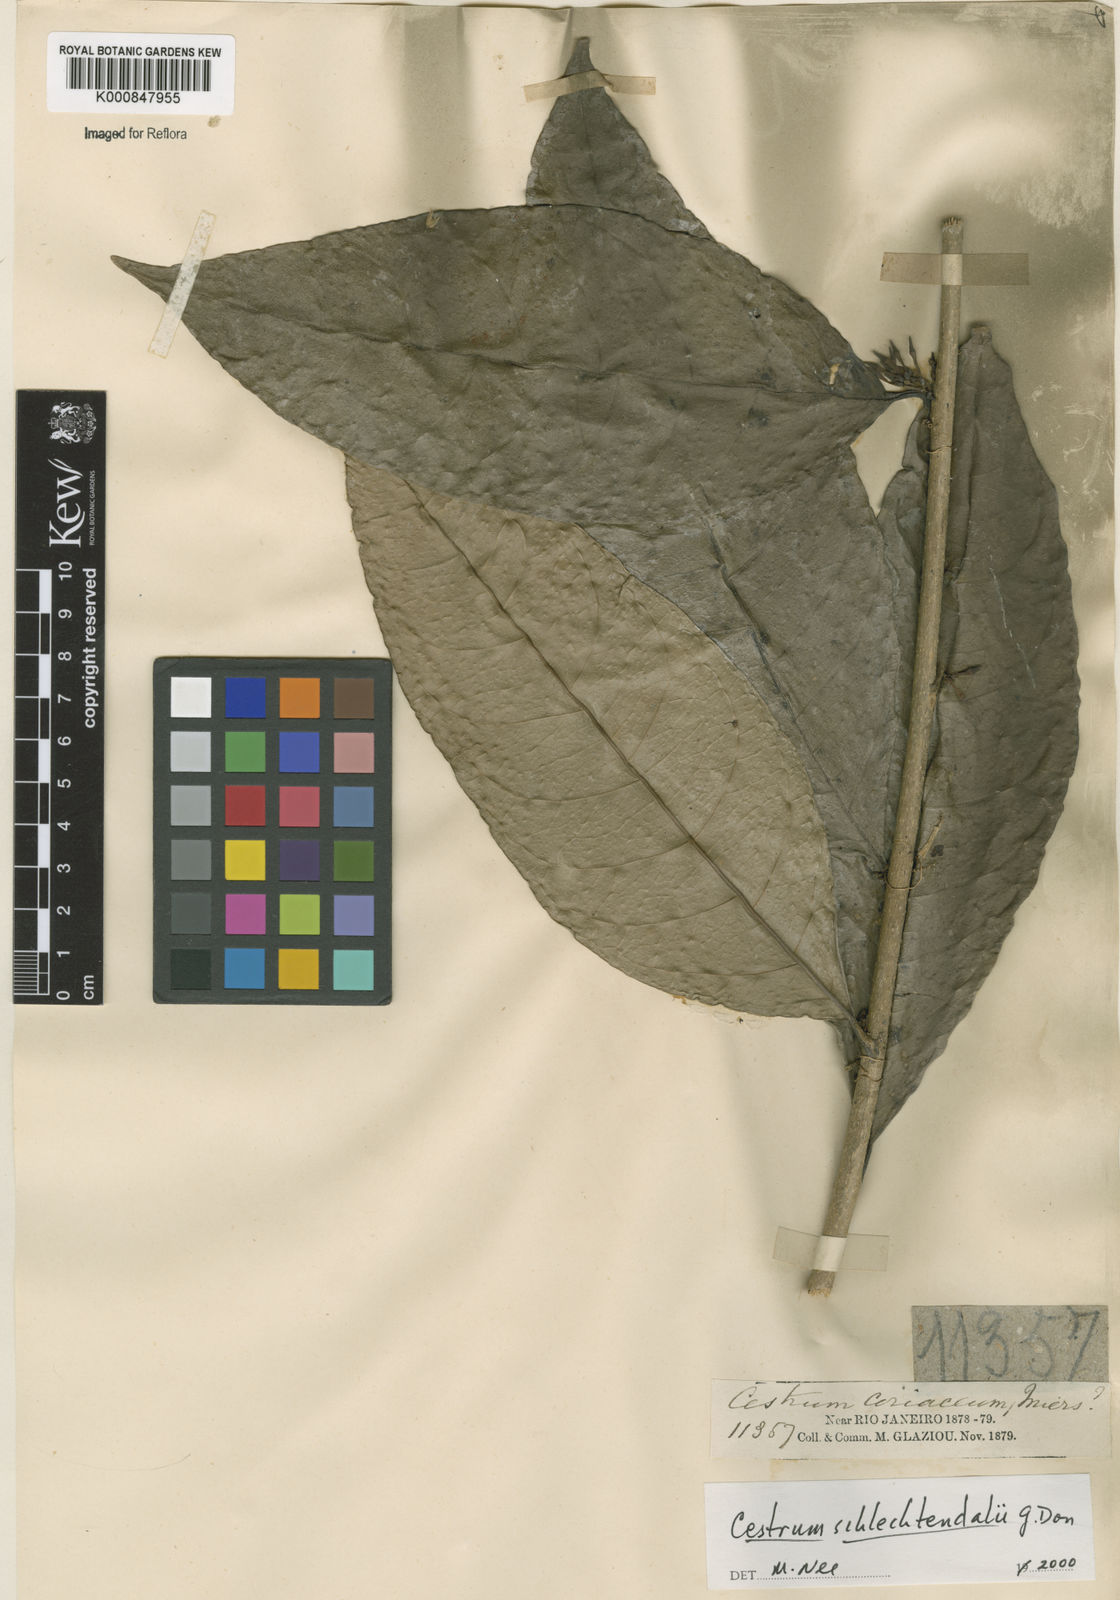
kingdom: Plantae
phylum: Tracheophyta
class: Magnoliopsida
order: Solanales
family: Solanaceae
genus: Cestrum
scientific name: Cestrum schlechtendalii
